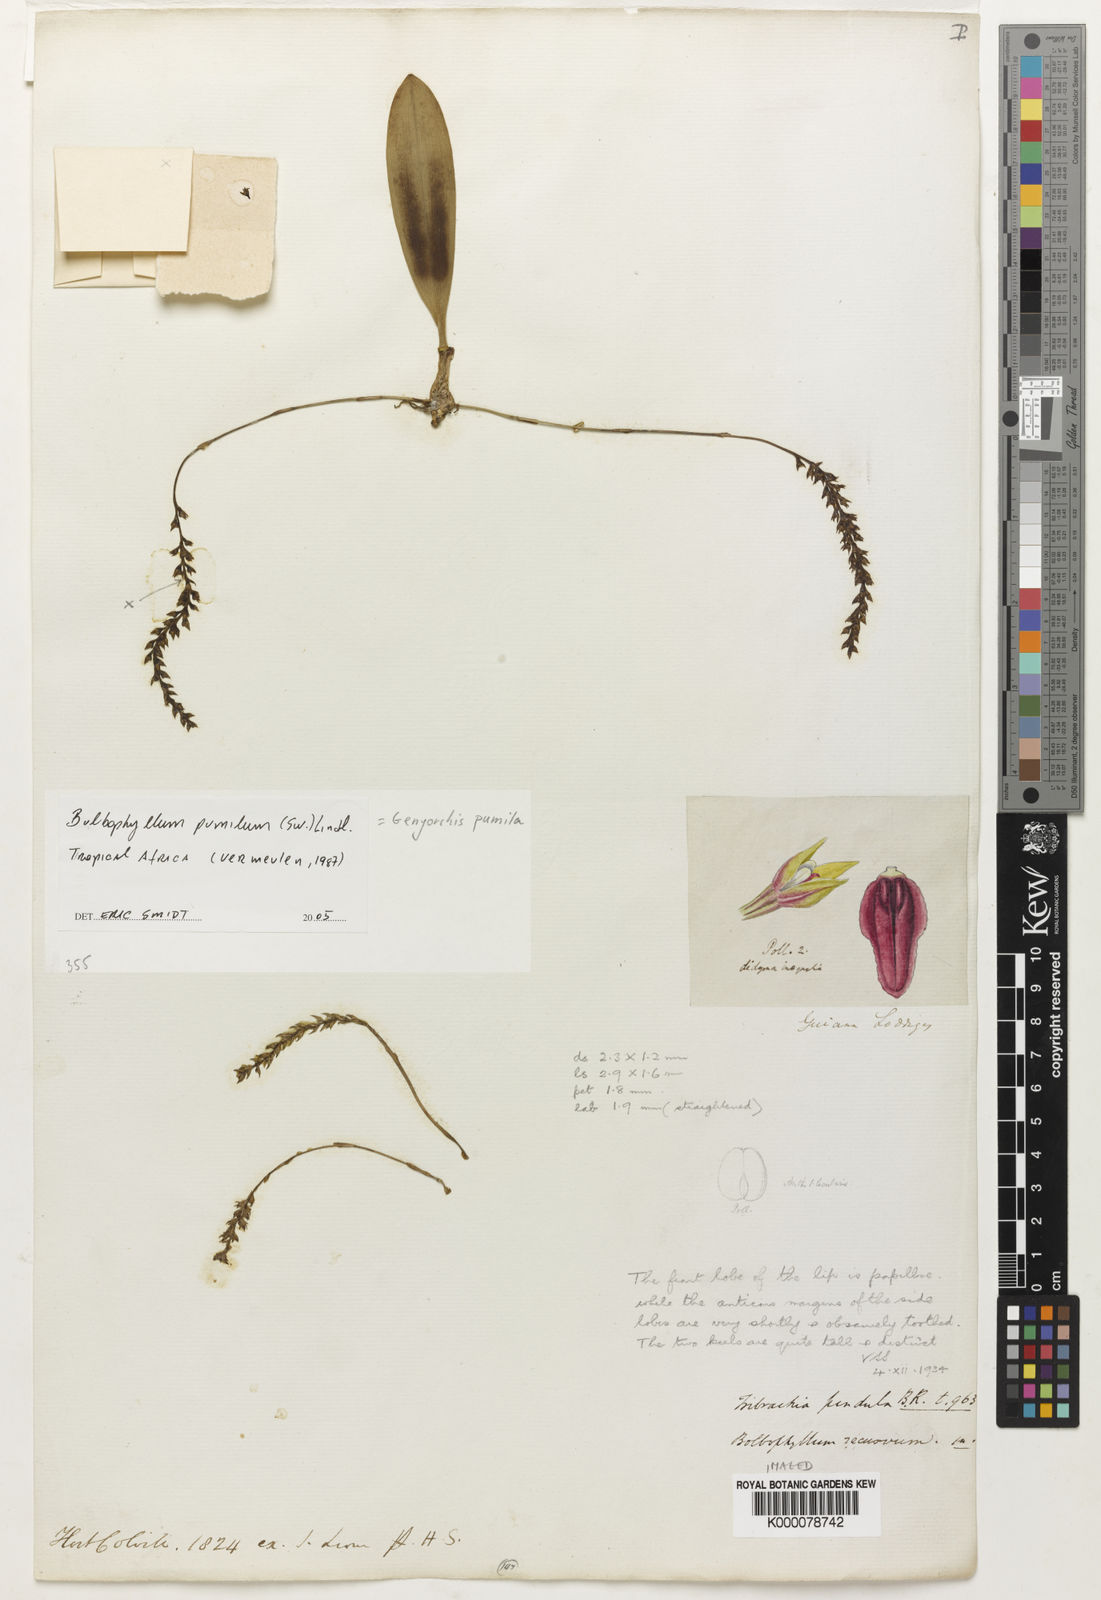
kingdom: Plantae
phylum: Tracheophyta
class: Liliopsida
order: Asparagales
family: Orchidaceae
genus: Bulbophyllum
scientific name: Bulbophyllum pumilum
